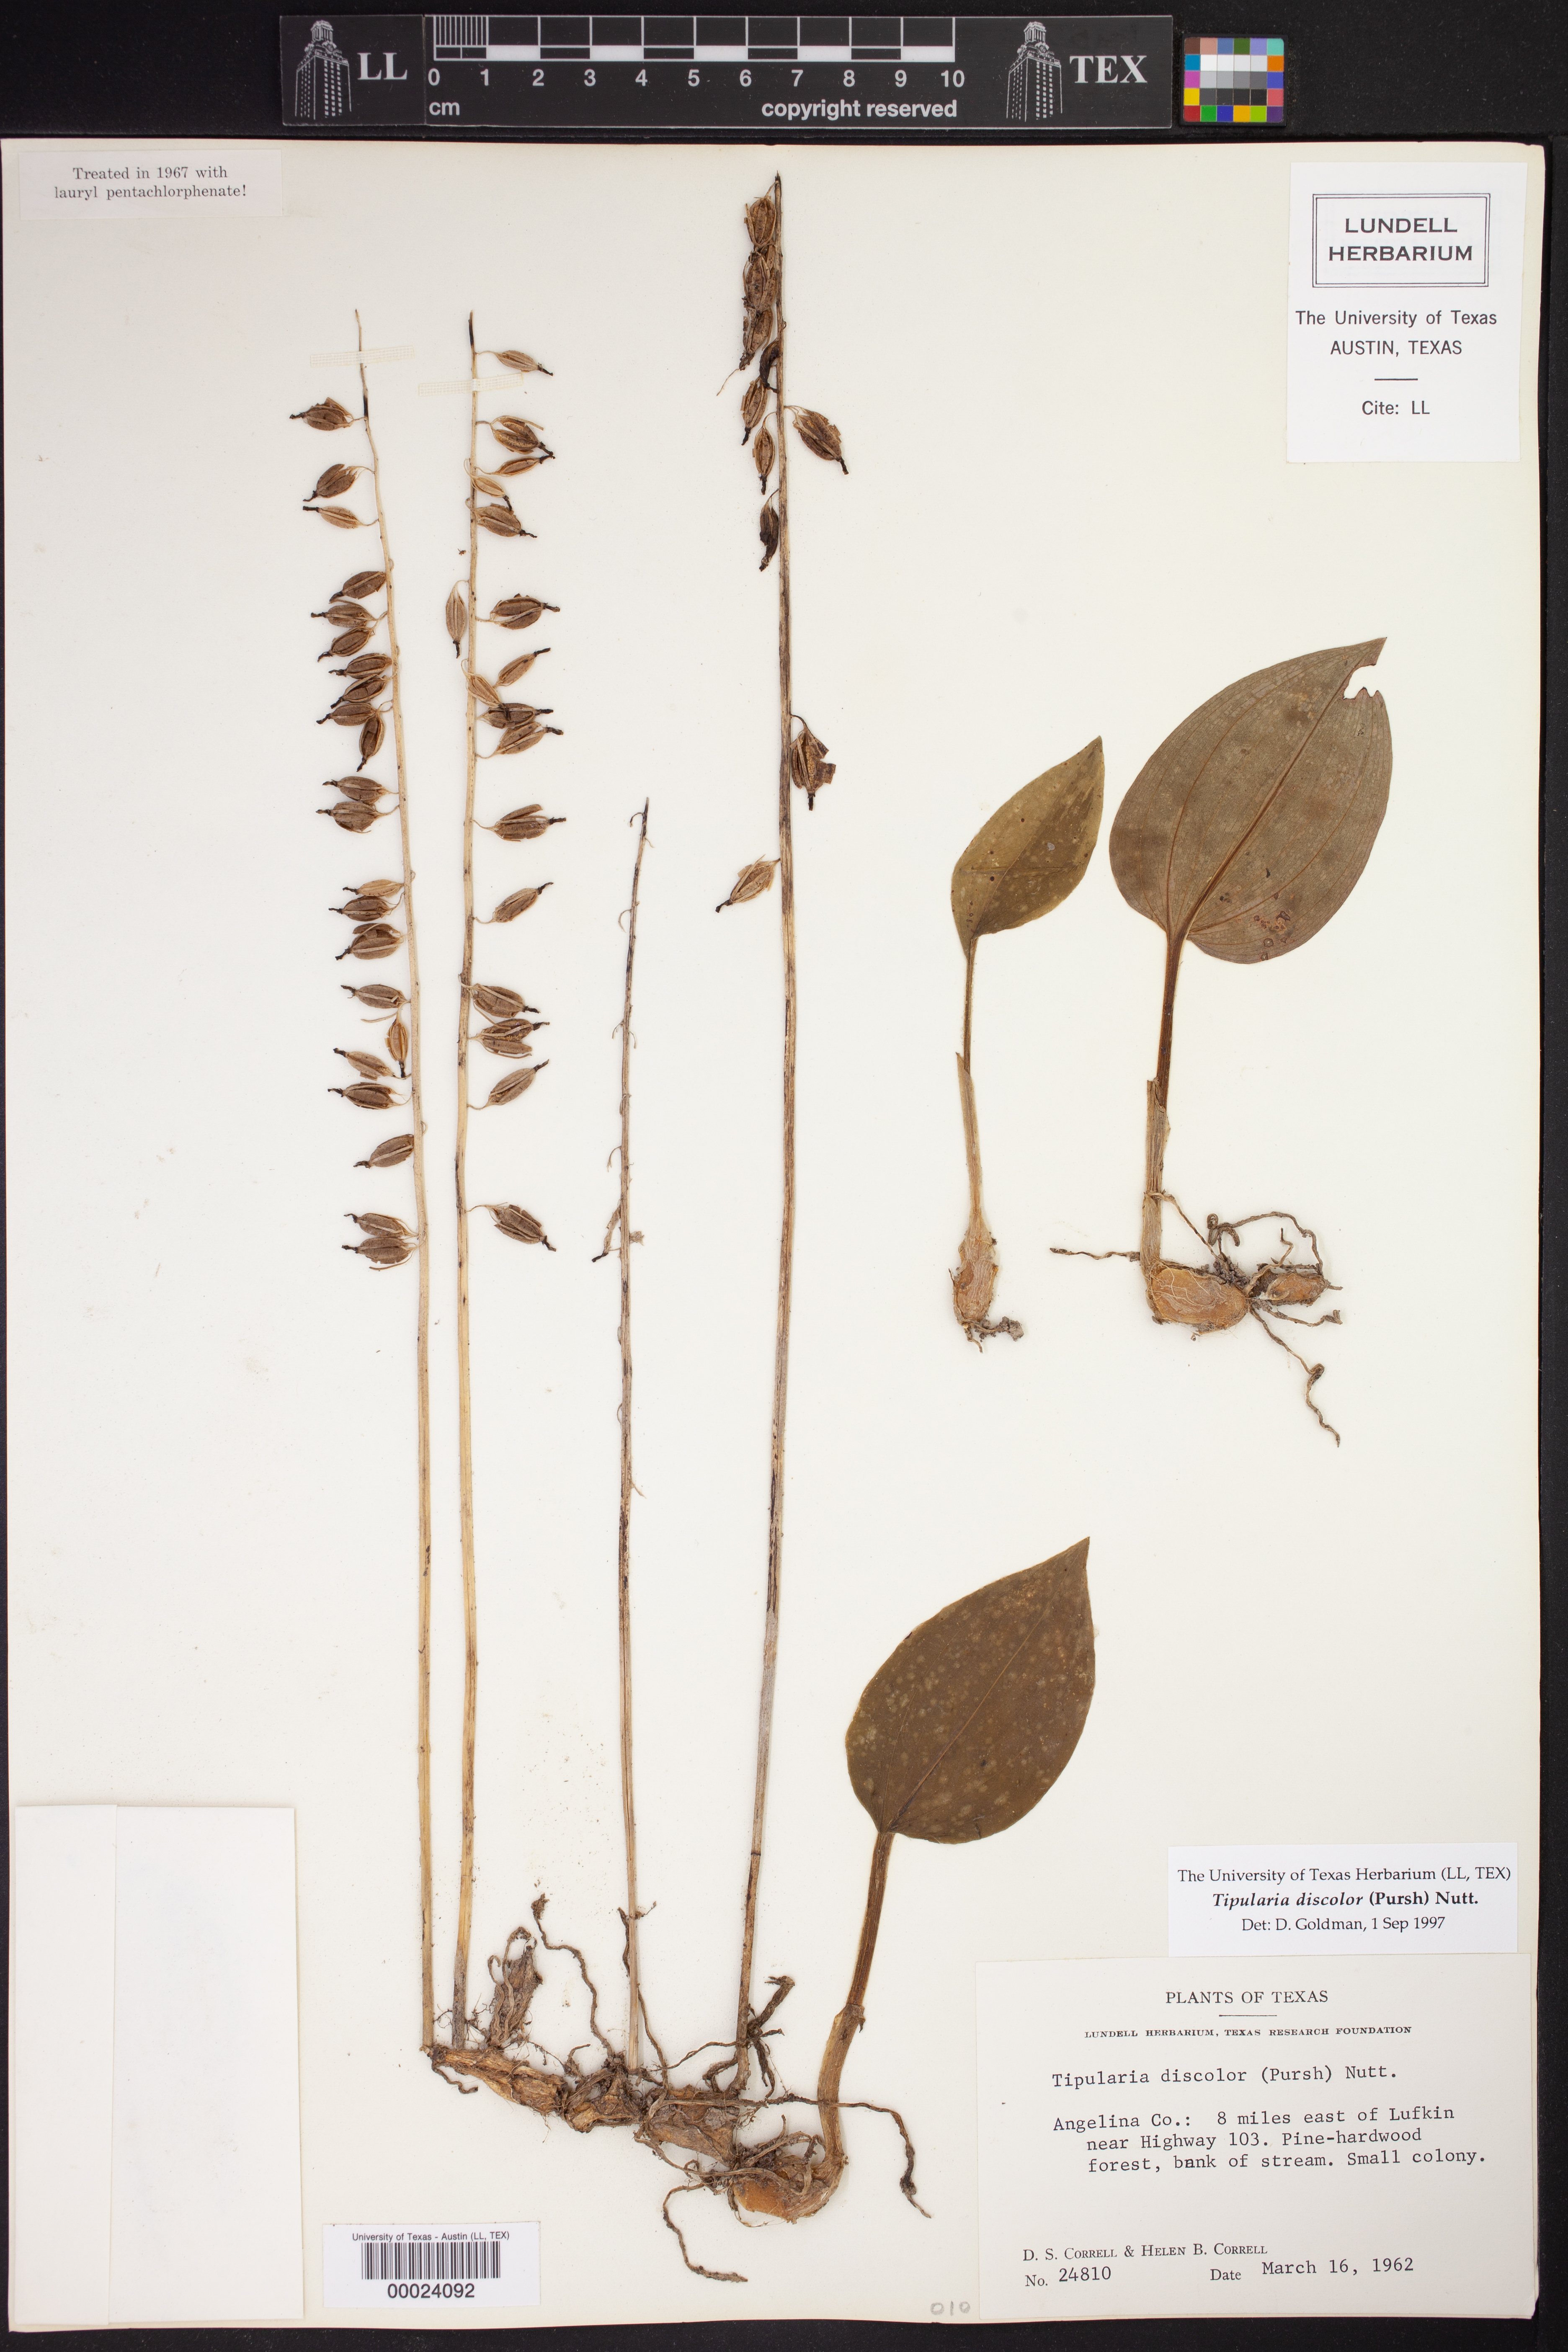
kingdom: Plantae
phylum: Tracheophyta
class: Liliopsida
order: Asparagales
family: Orchidaceae
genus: Tipularia
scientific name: Tipularia discolor
